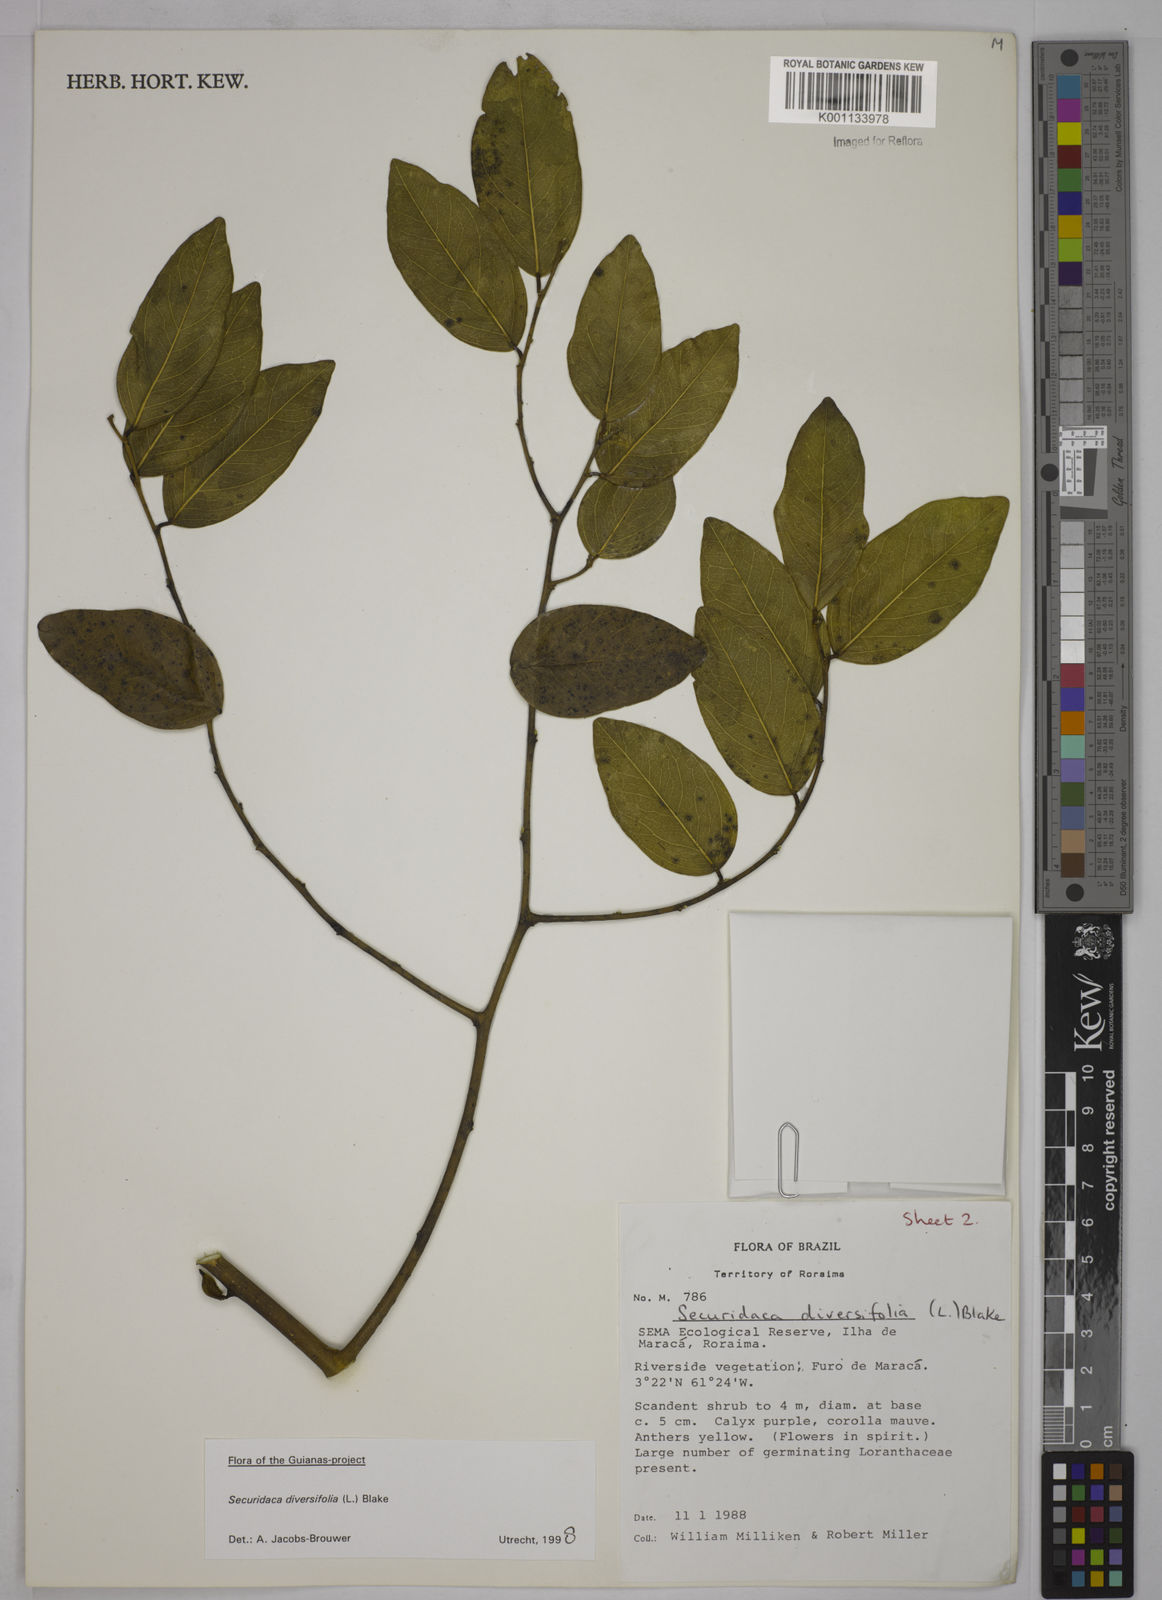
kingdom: Plantae
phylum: Tracheophyta
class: Magnoliopsida
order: Fabales
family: Polygalaceae
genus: Securidaca
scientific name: Securidaca diversifolia
